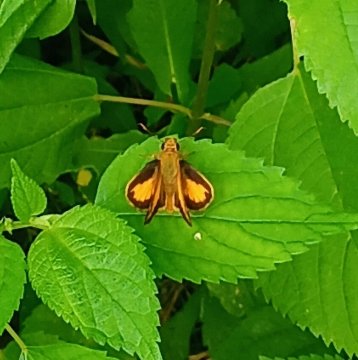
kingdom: Animalia
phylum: Arthropoda
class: Insecta
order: Lepidoptera
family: Hesperiidae
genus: Lon
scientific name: Lon zabulon
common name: Zabulon Skipper
